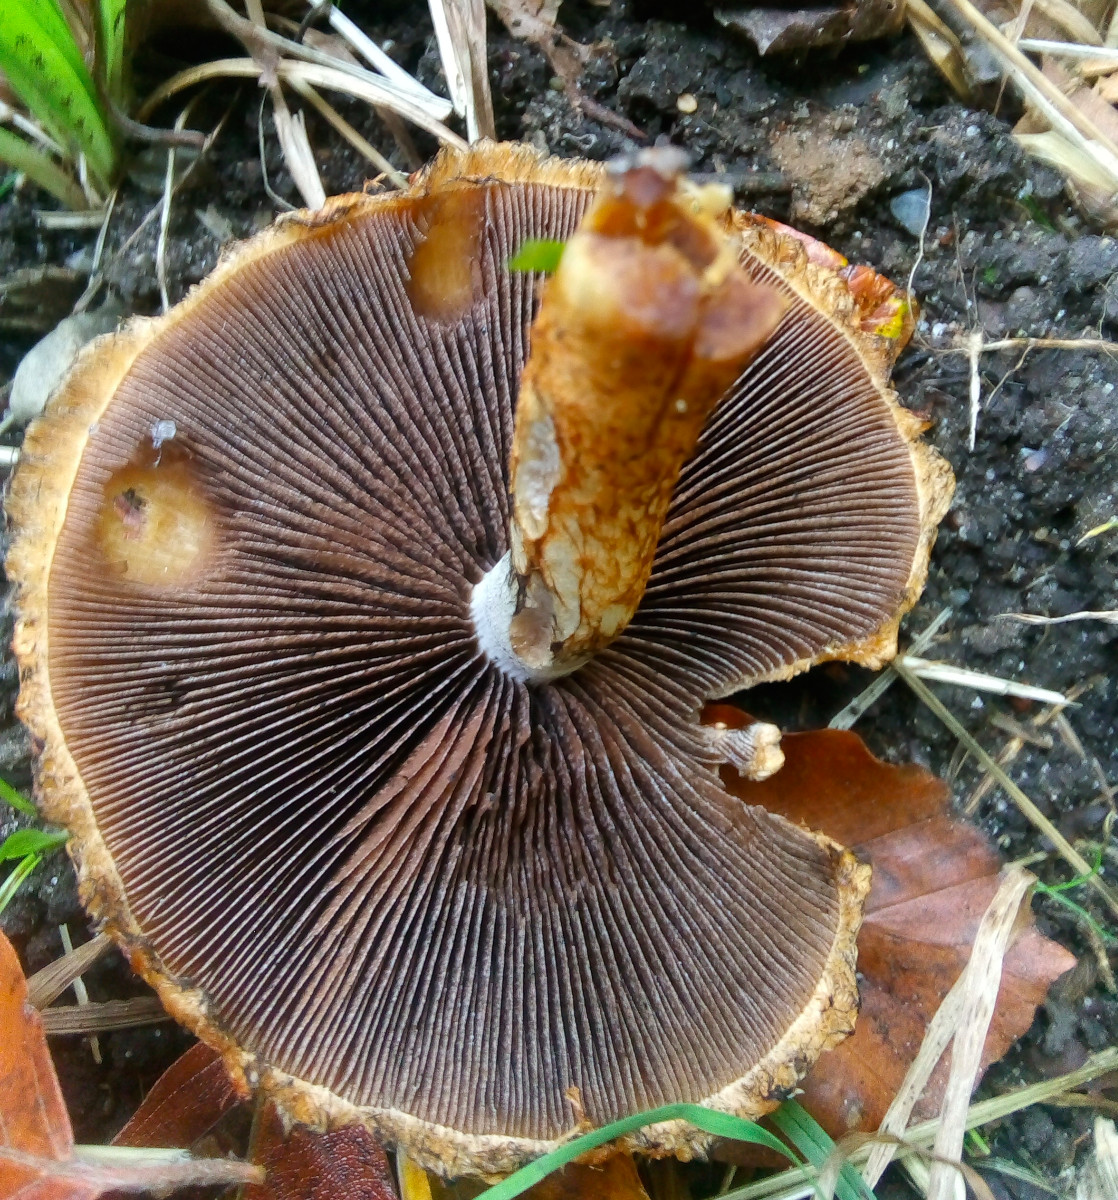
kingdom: Fungi
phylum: Basidiomycota
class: Agaricomycetes
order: Agaricales
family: Psathyrellaceae
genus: Lacrymaria
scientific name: Lacrymaria pyrotricha
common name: ildhåret mørkhat
